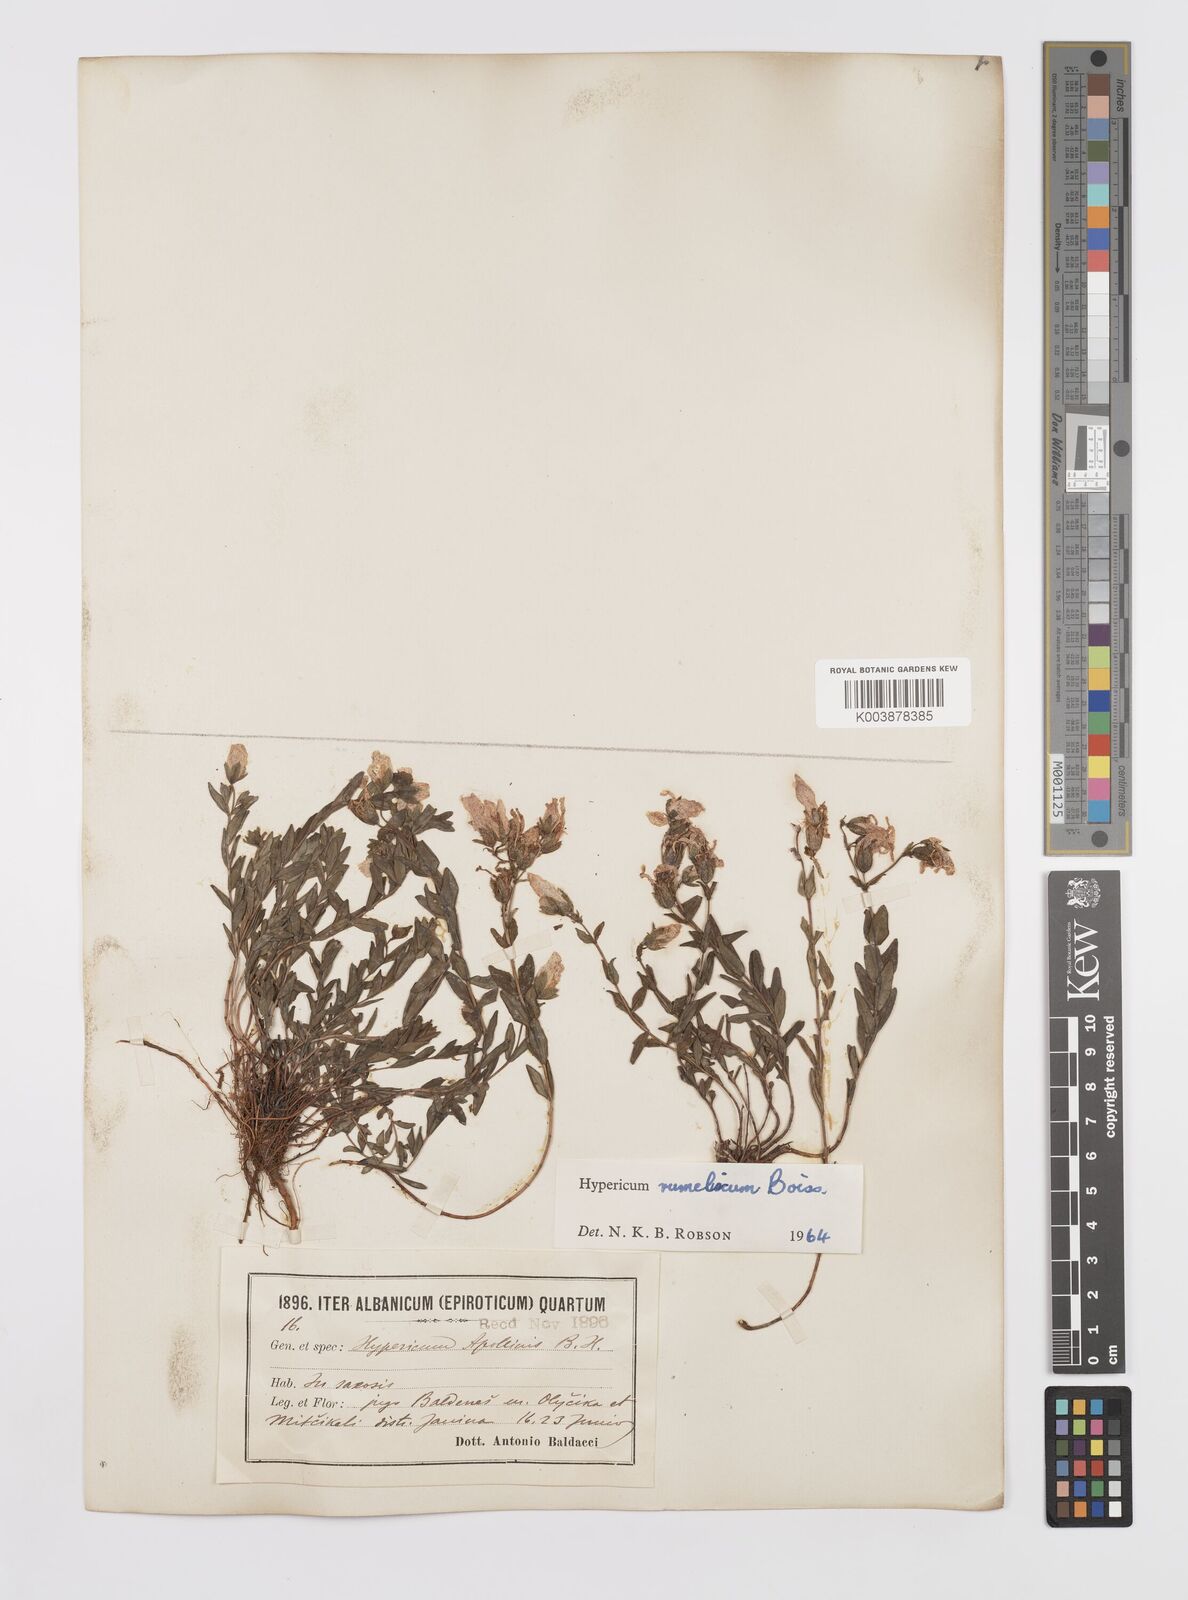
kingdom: Plantae
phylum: Tracheophyta
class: Magnoliopsida
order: Malpighiales
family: Hypericaceae
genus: Hypericum
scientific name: Hypericum rumeliacum
